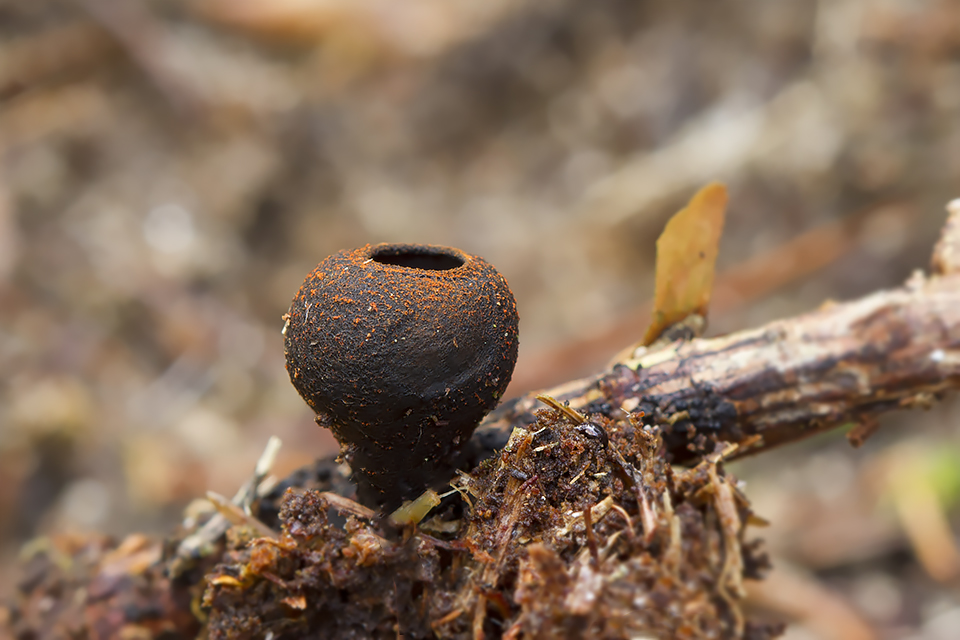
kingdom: Fungi
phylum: Ascomycota
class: Pezizomycetes
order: Pezizales
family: Sarcosomataceae
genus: Plectania
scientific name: Plectania melastoma
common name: rustbæger
